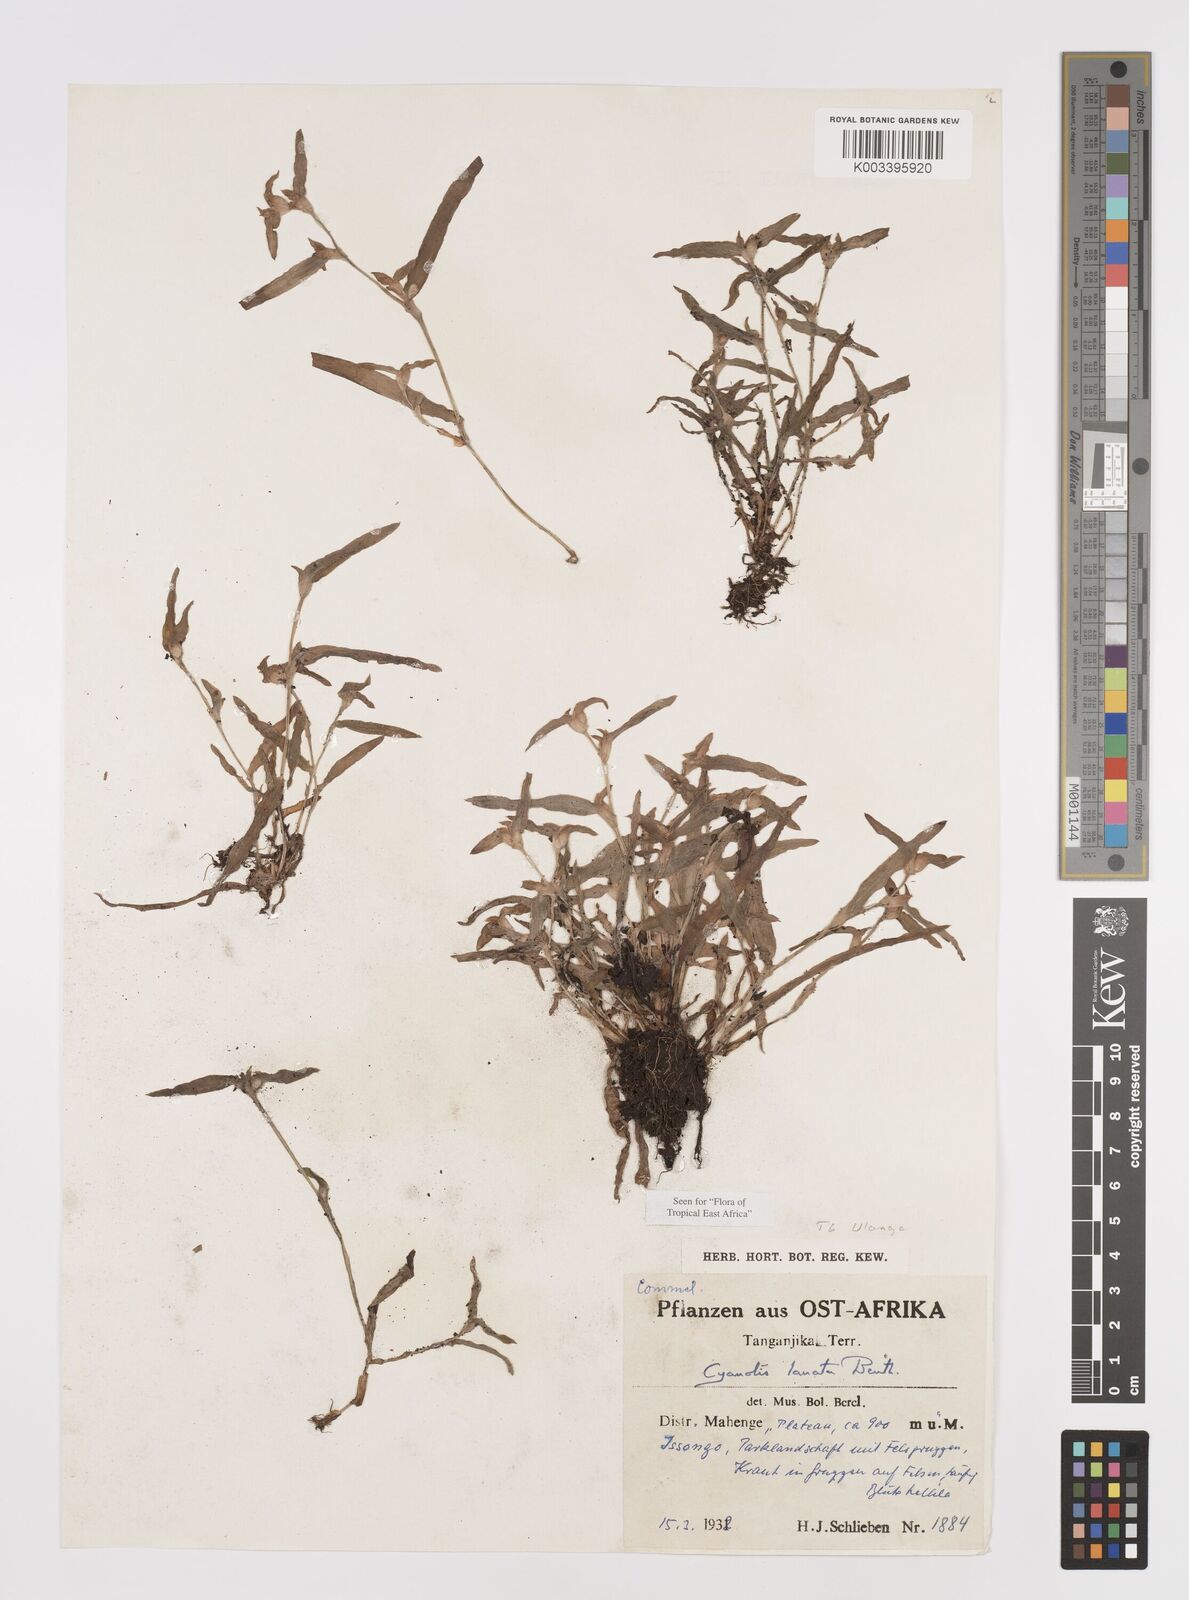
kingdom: Plantae
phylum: Tracheophyta
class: Liliopsida
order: Commelinales
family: Commelinaceae
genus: Cyanotis
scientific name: Cyanotis lanata
